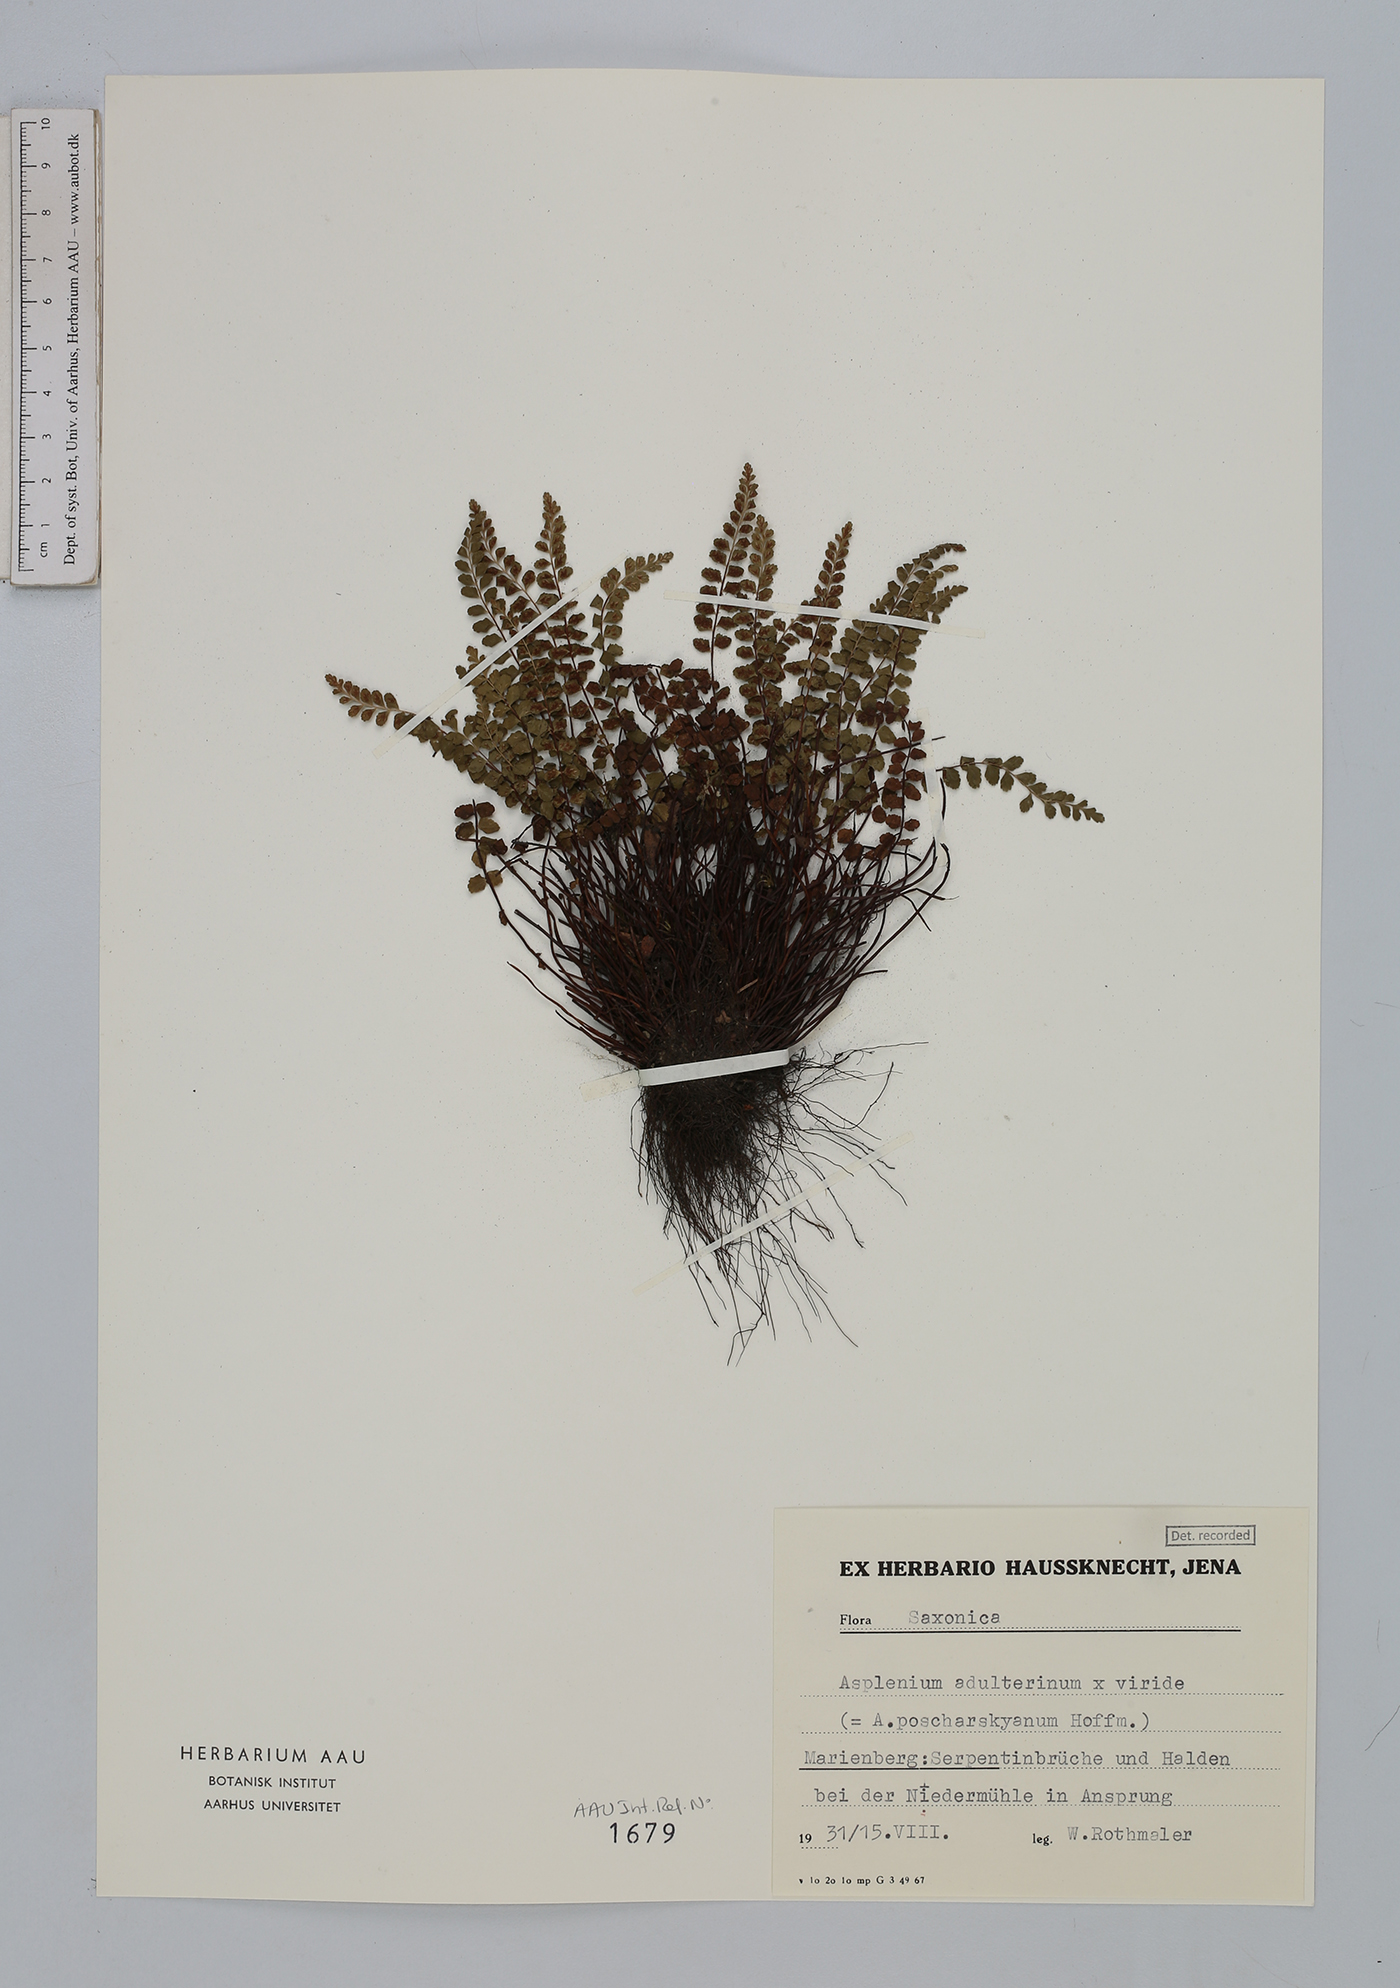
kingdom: Plantae
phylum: Tracheophyta
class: Polypodiopsida
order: Polypodiales
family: Aspleniaceae
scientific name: Aspleniaceae
